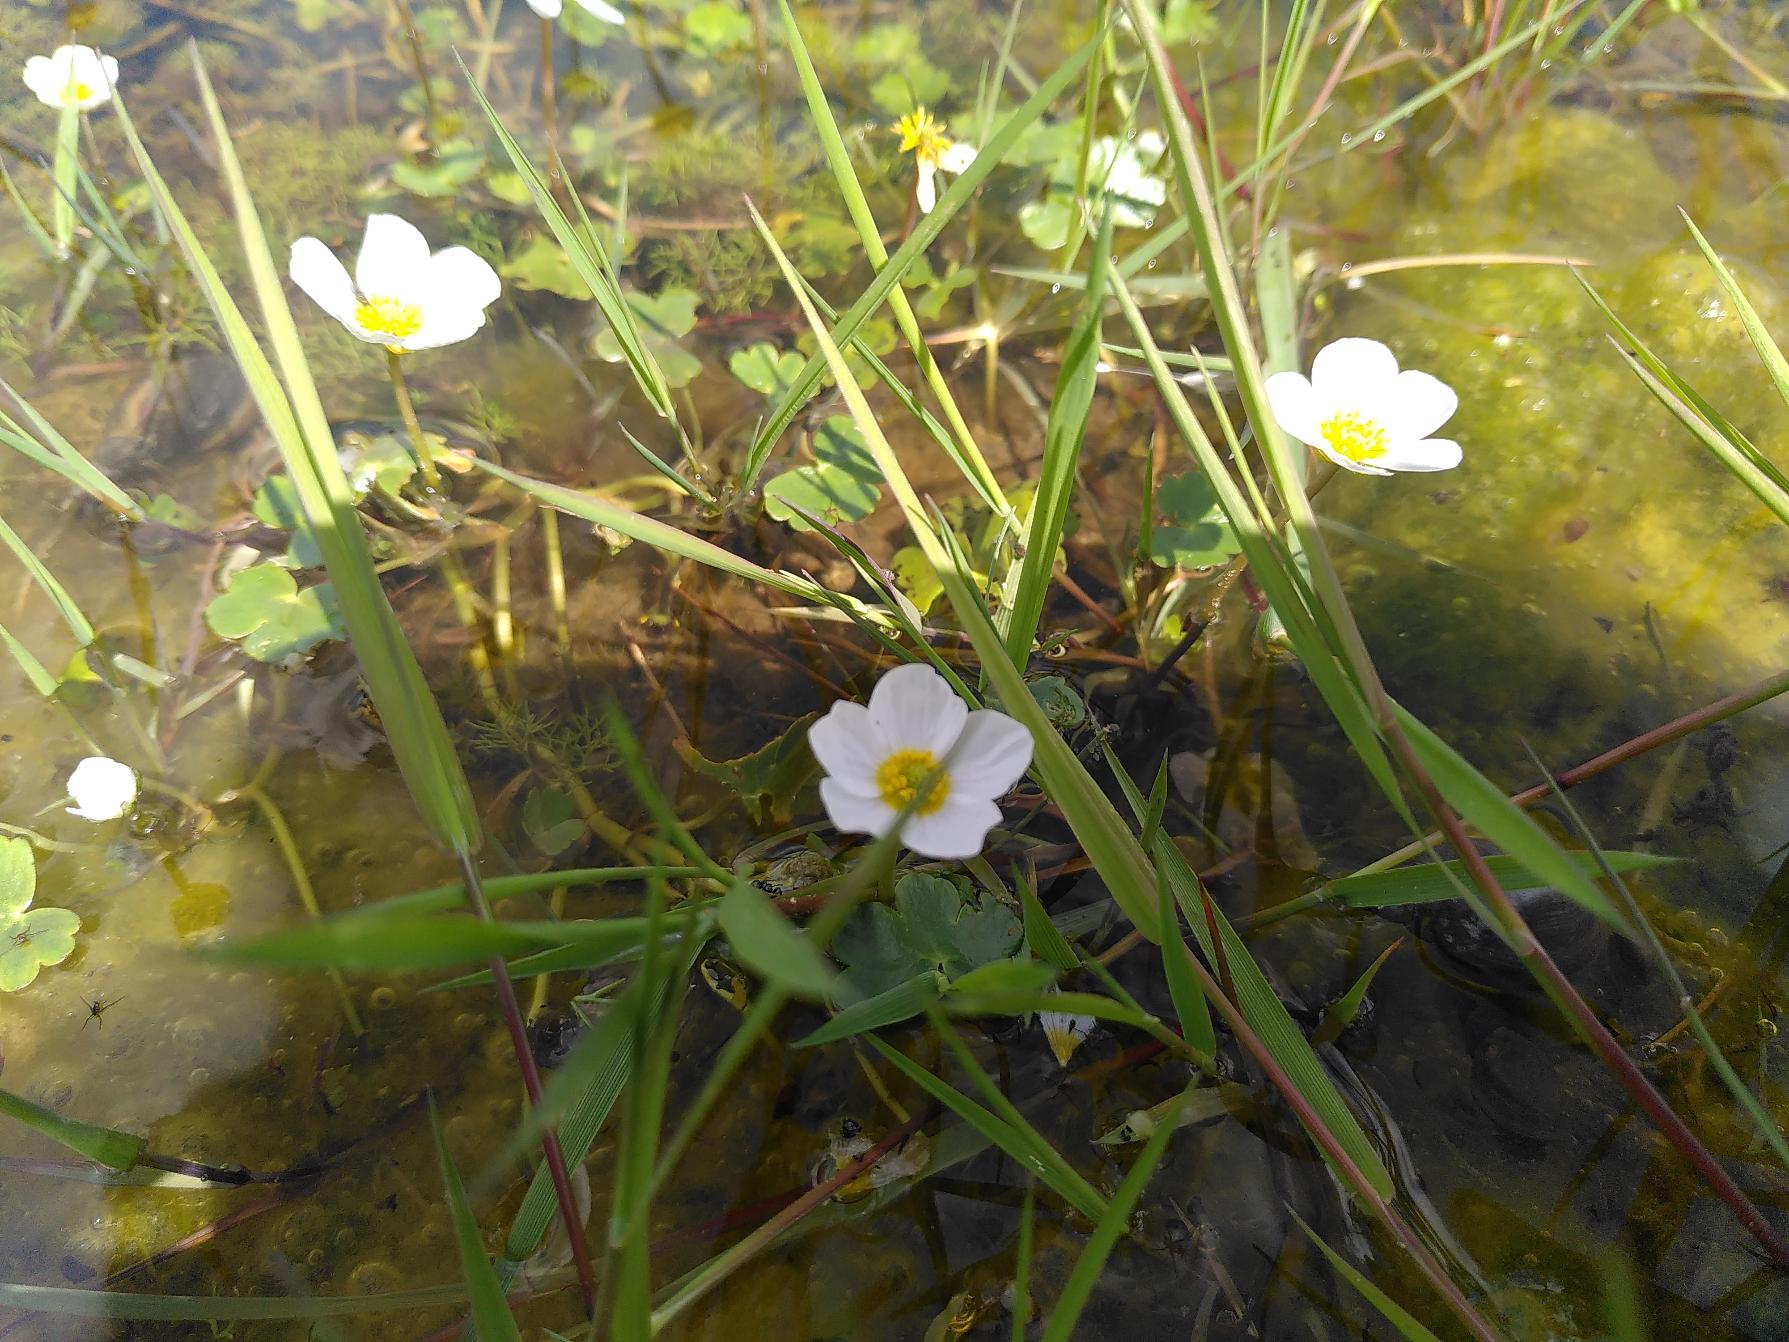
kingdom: Plantae
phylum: Tracheophyta
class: Magnoliopsida
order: Ranunculales
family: Ranunculaceae
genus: Ranunculus
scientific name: Ranunculus peltatus
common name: Storblomstret vandranunkel
